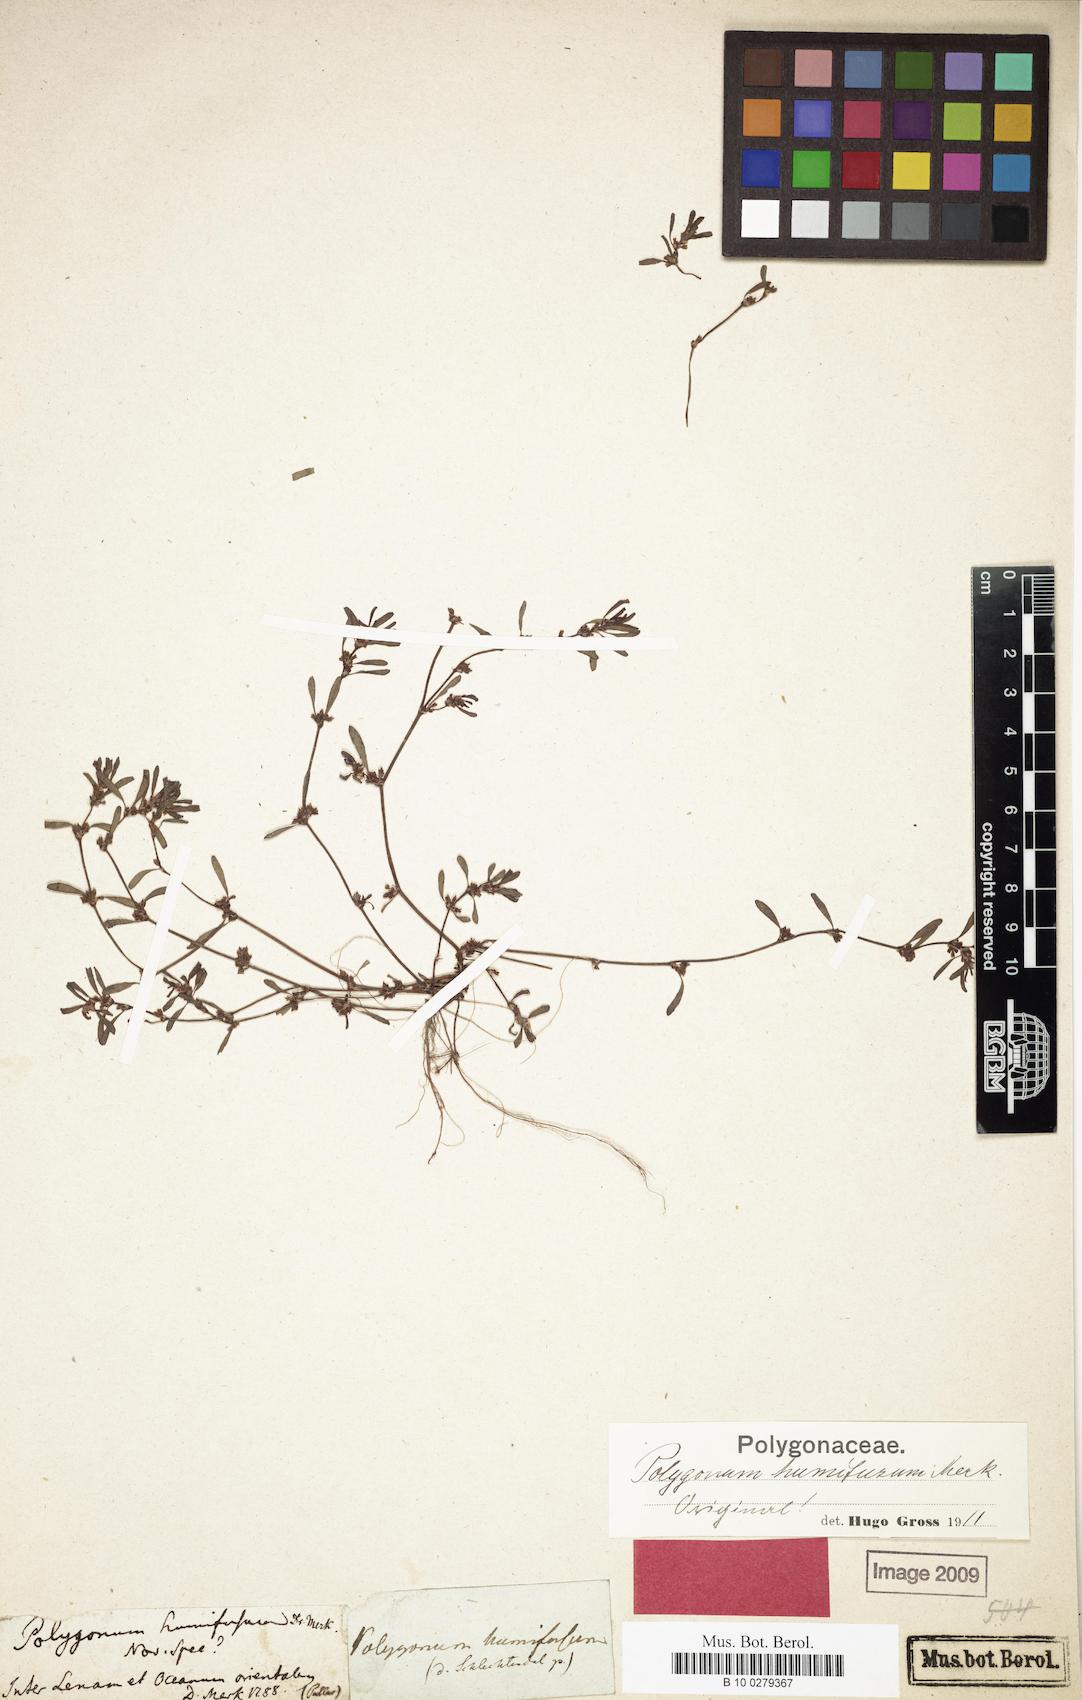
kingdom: Plantae
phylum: Tracheophyta
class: Magnoliopsida
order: Caryophyllales
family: Polygonaceae
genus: Polygonum
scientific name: Polygonum humifusum
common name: Alaska knotweed
